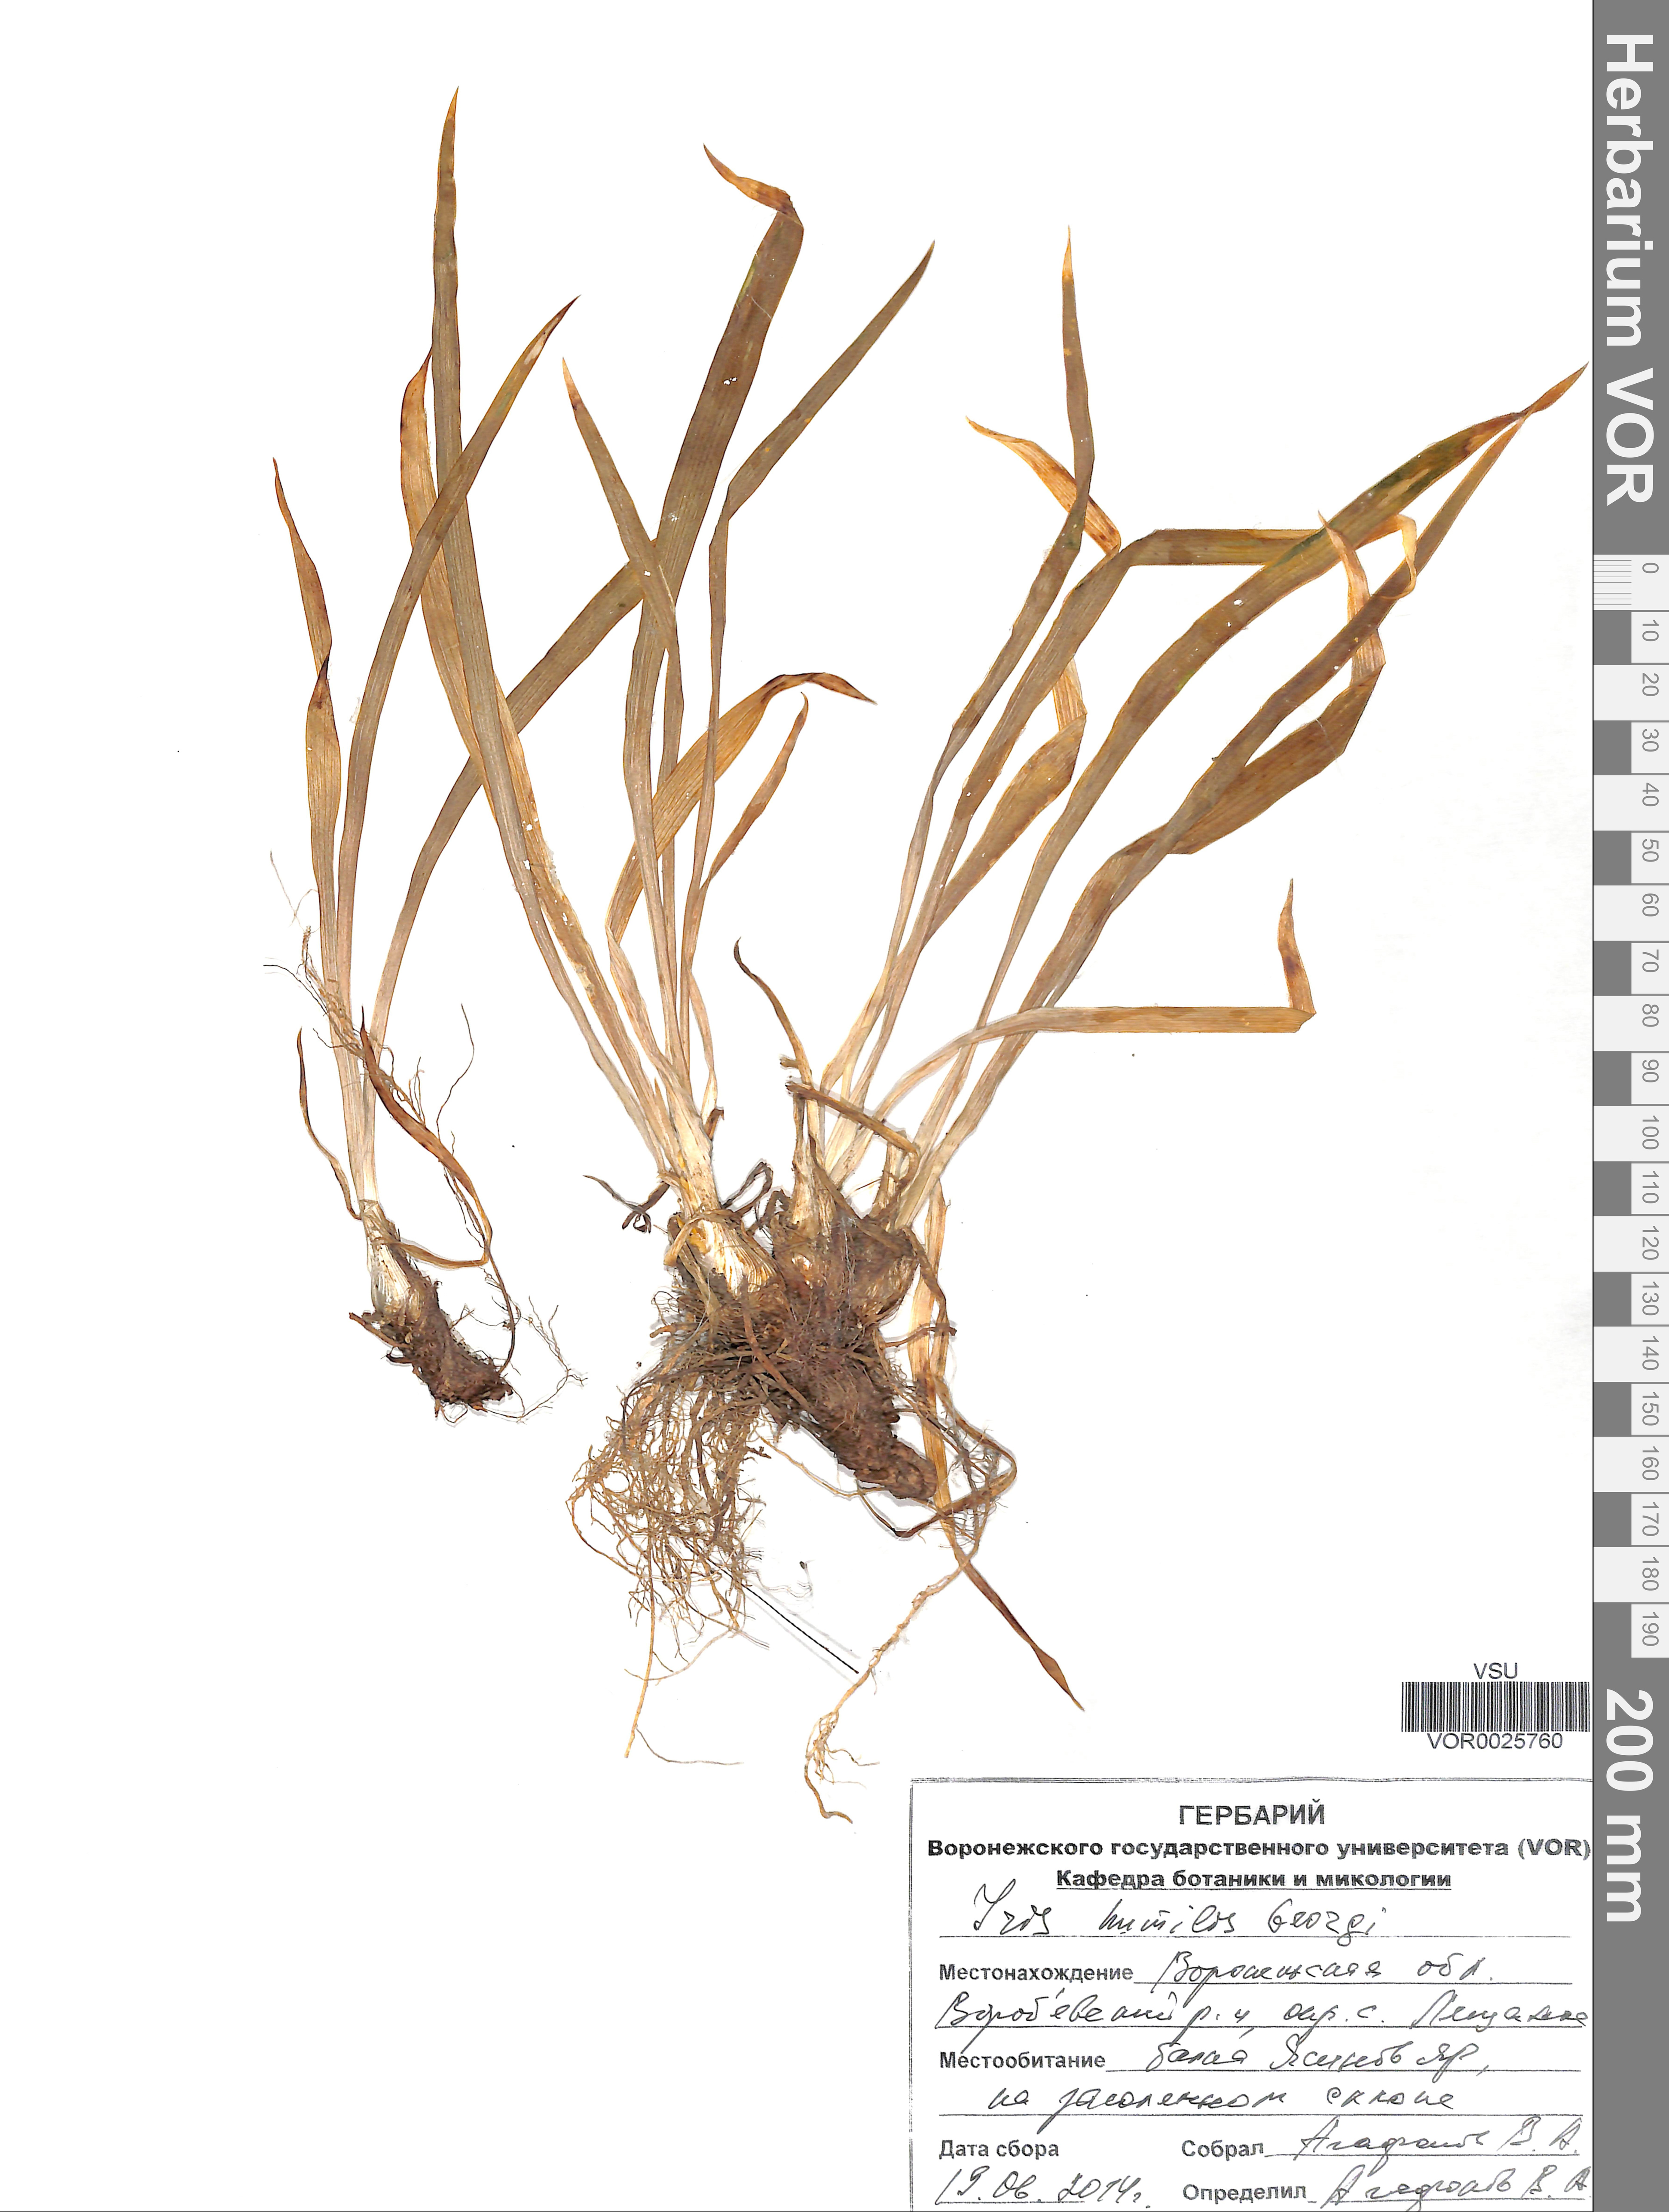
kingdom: Plantae
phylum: Tracheophyta
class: Liliopsida
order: Asparagales
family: Iridaceae
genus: Iris
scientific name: Iris humilis
